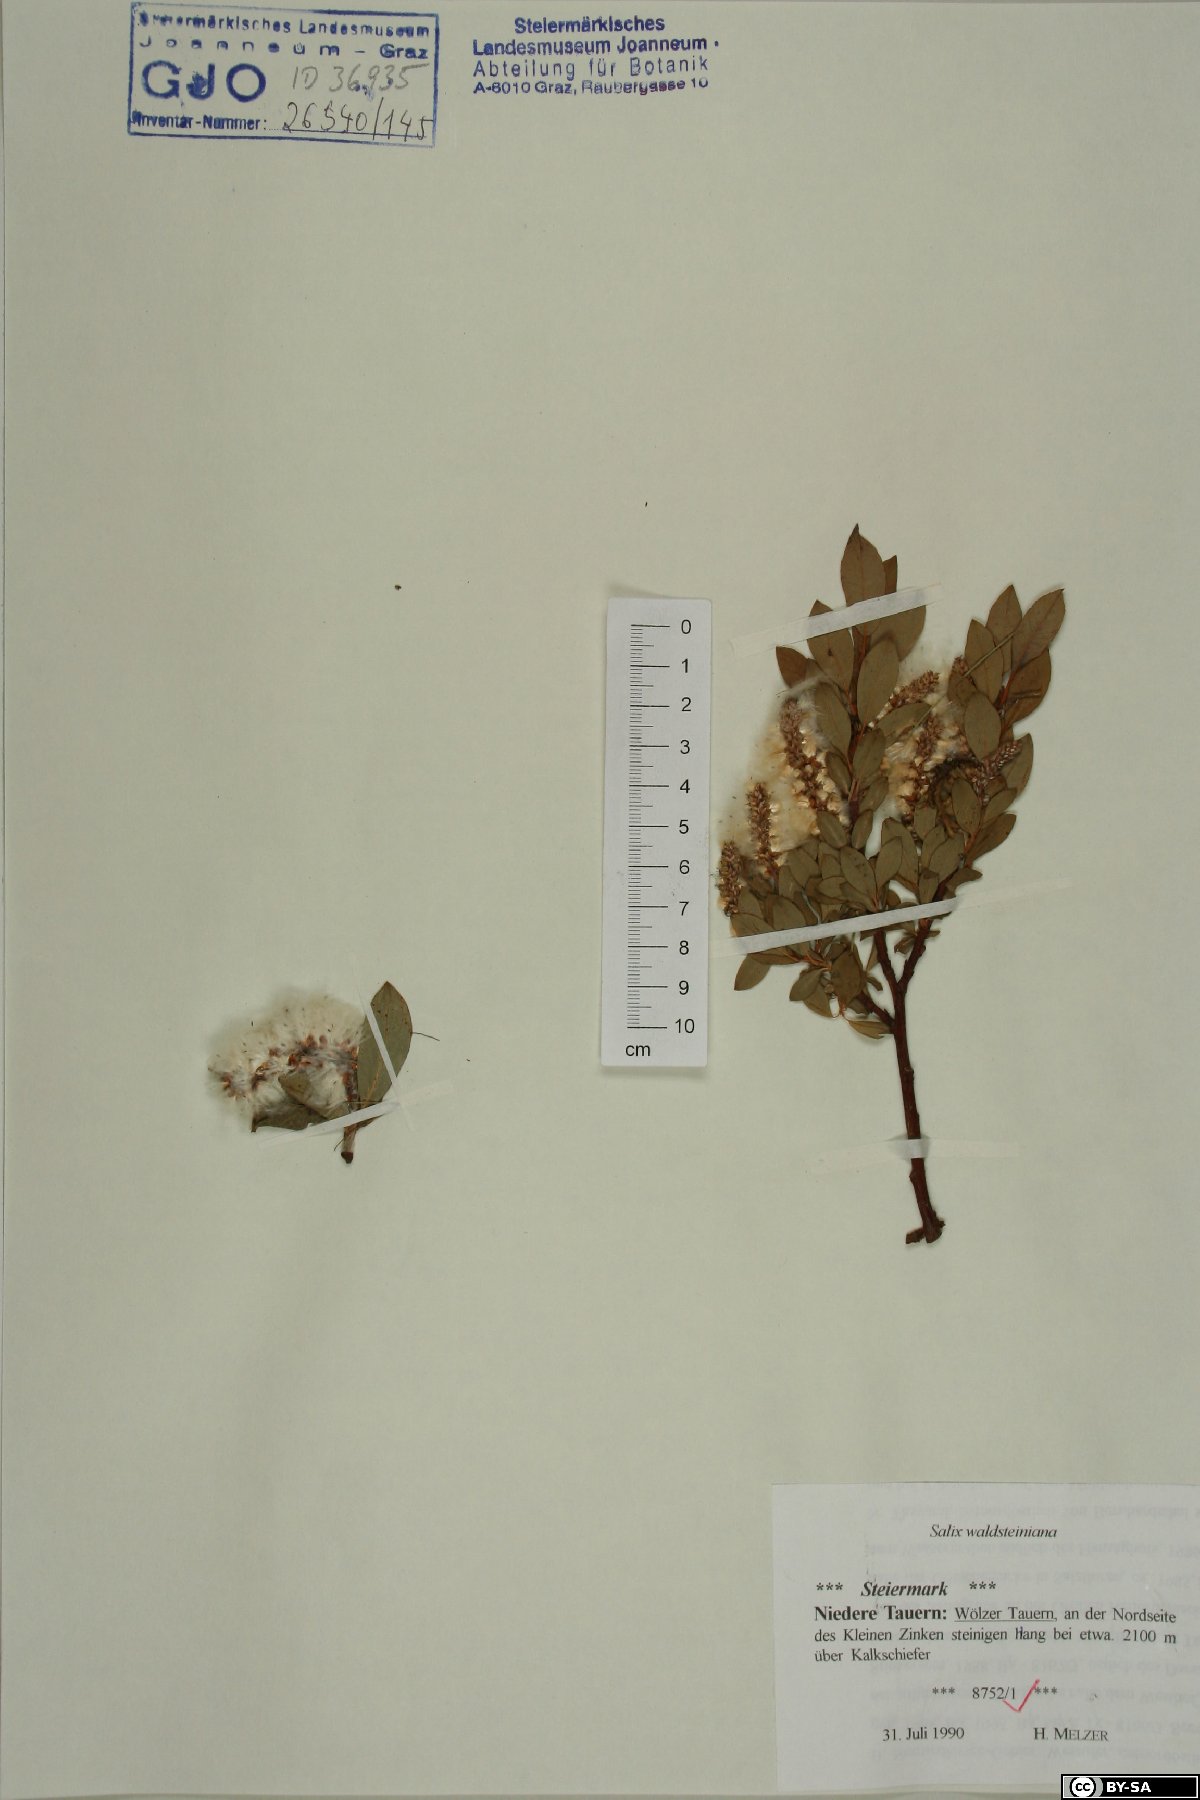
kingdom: Plantae
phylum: Tracheophyta
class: Magnoliopsida
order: Malpighiales
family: Salicaceae
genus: Salix
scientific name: Salix waldsteiniana
